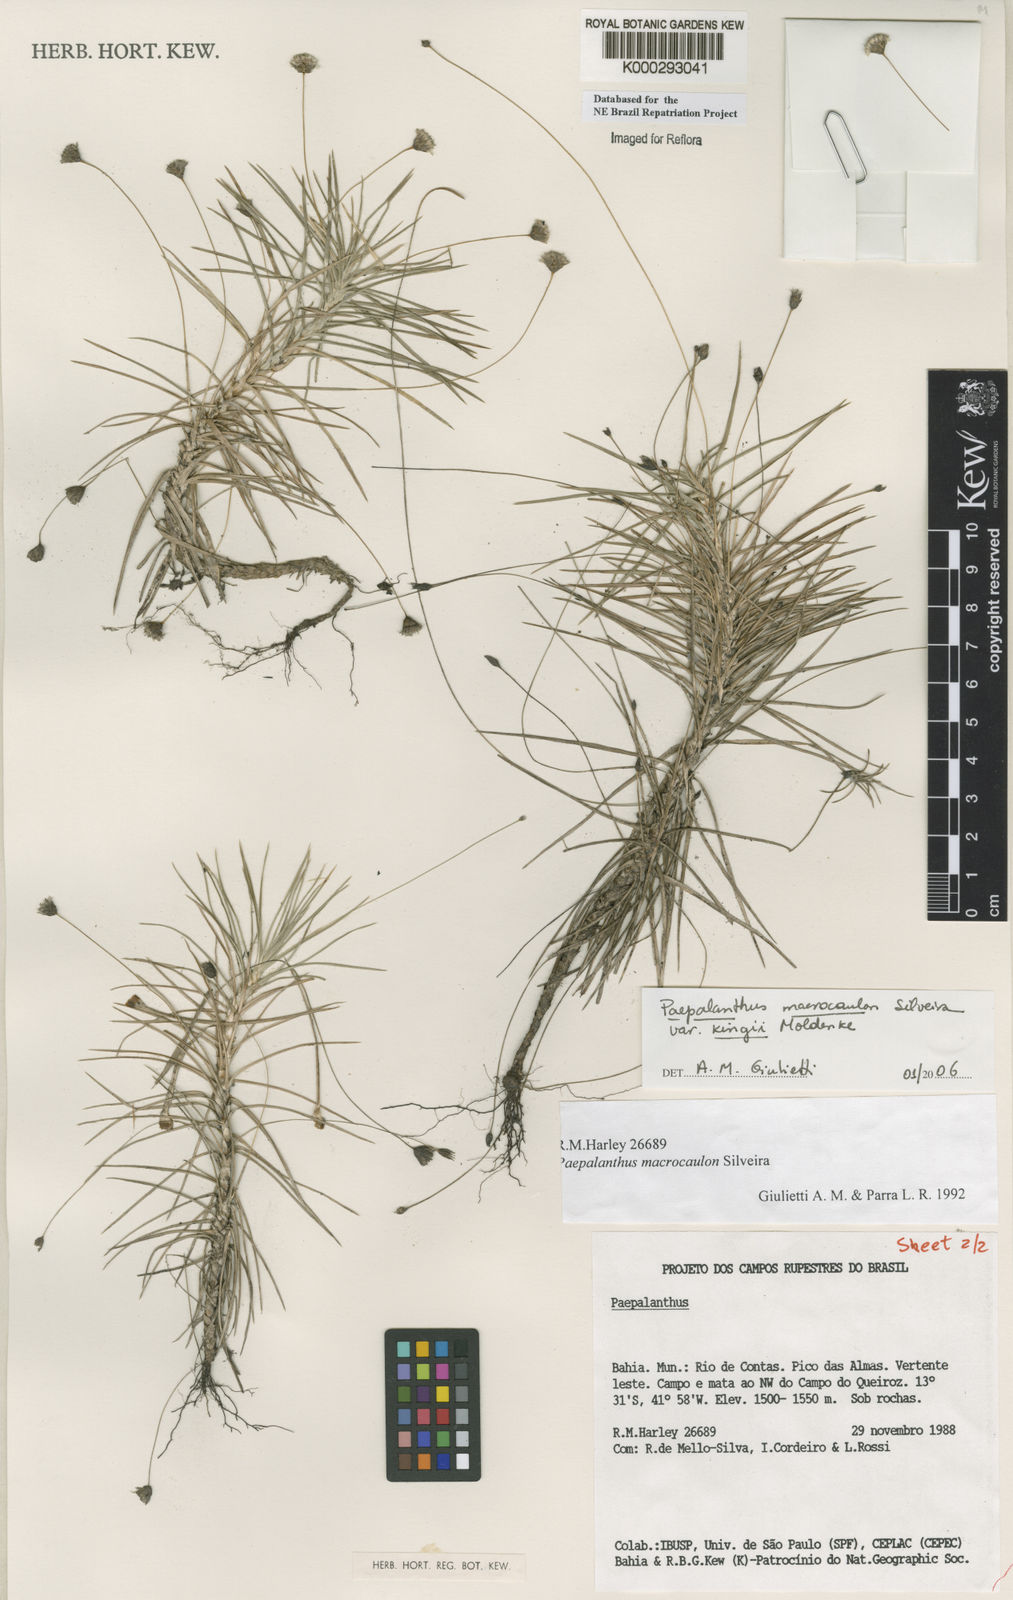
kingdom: Plantae
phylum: Tracheophyta
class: Liliopsida
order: Poales
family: Eriocaulaceae
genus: Paepalanthus
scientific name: Paepalanthus macrocaulon
